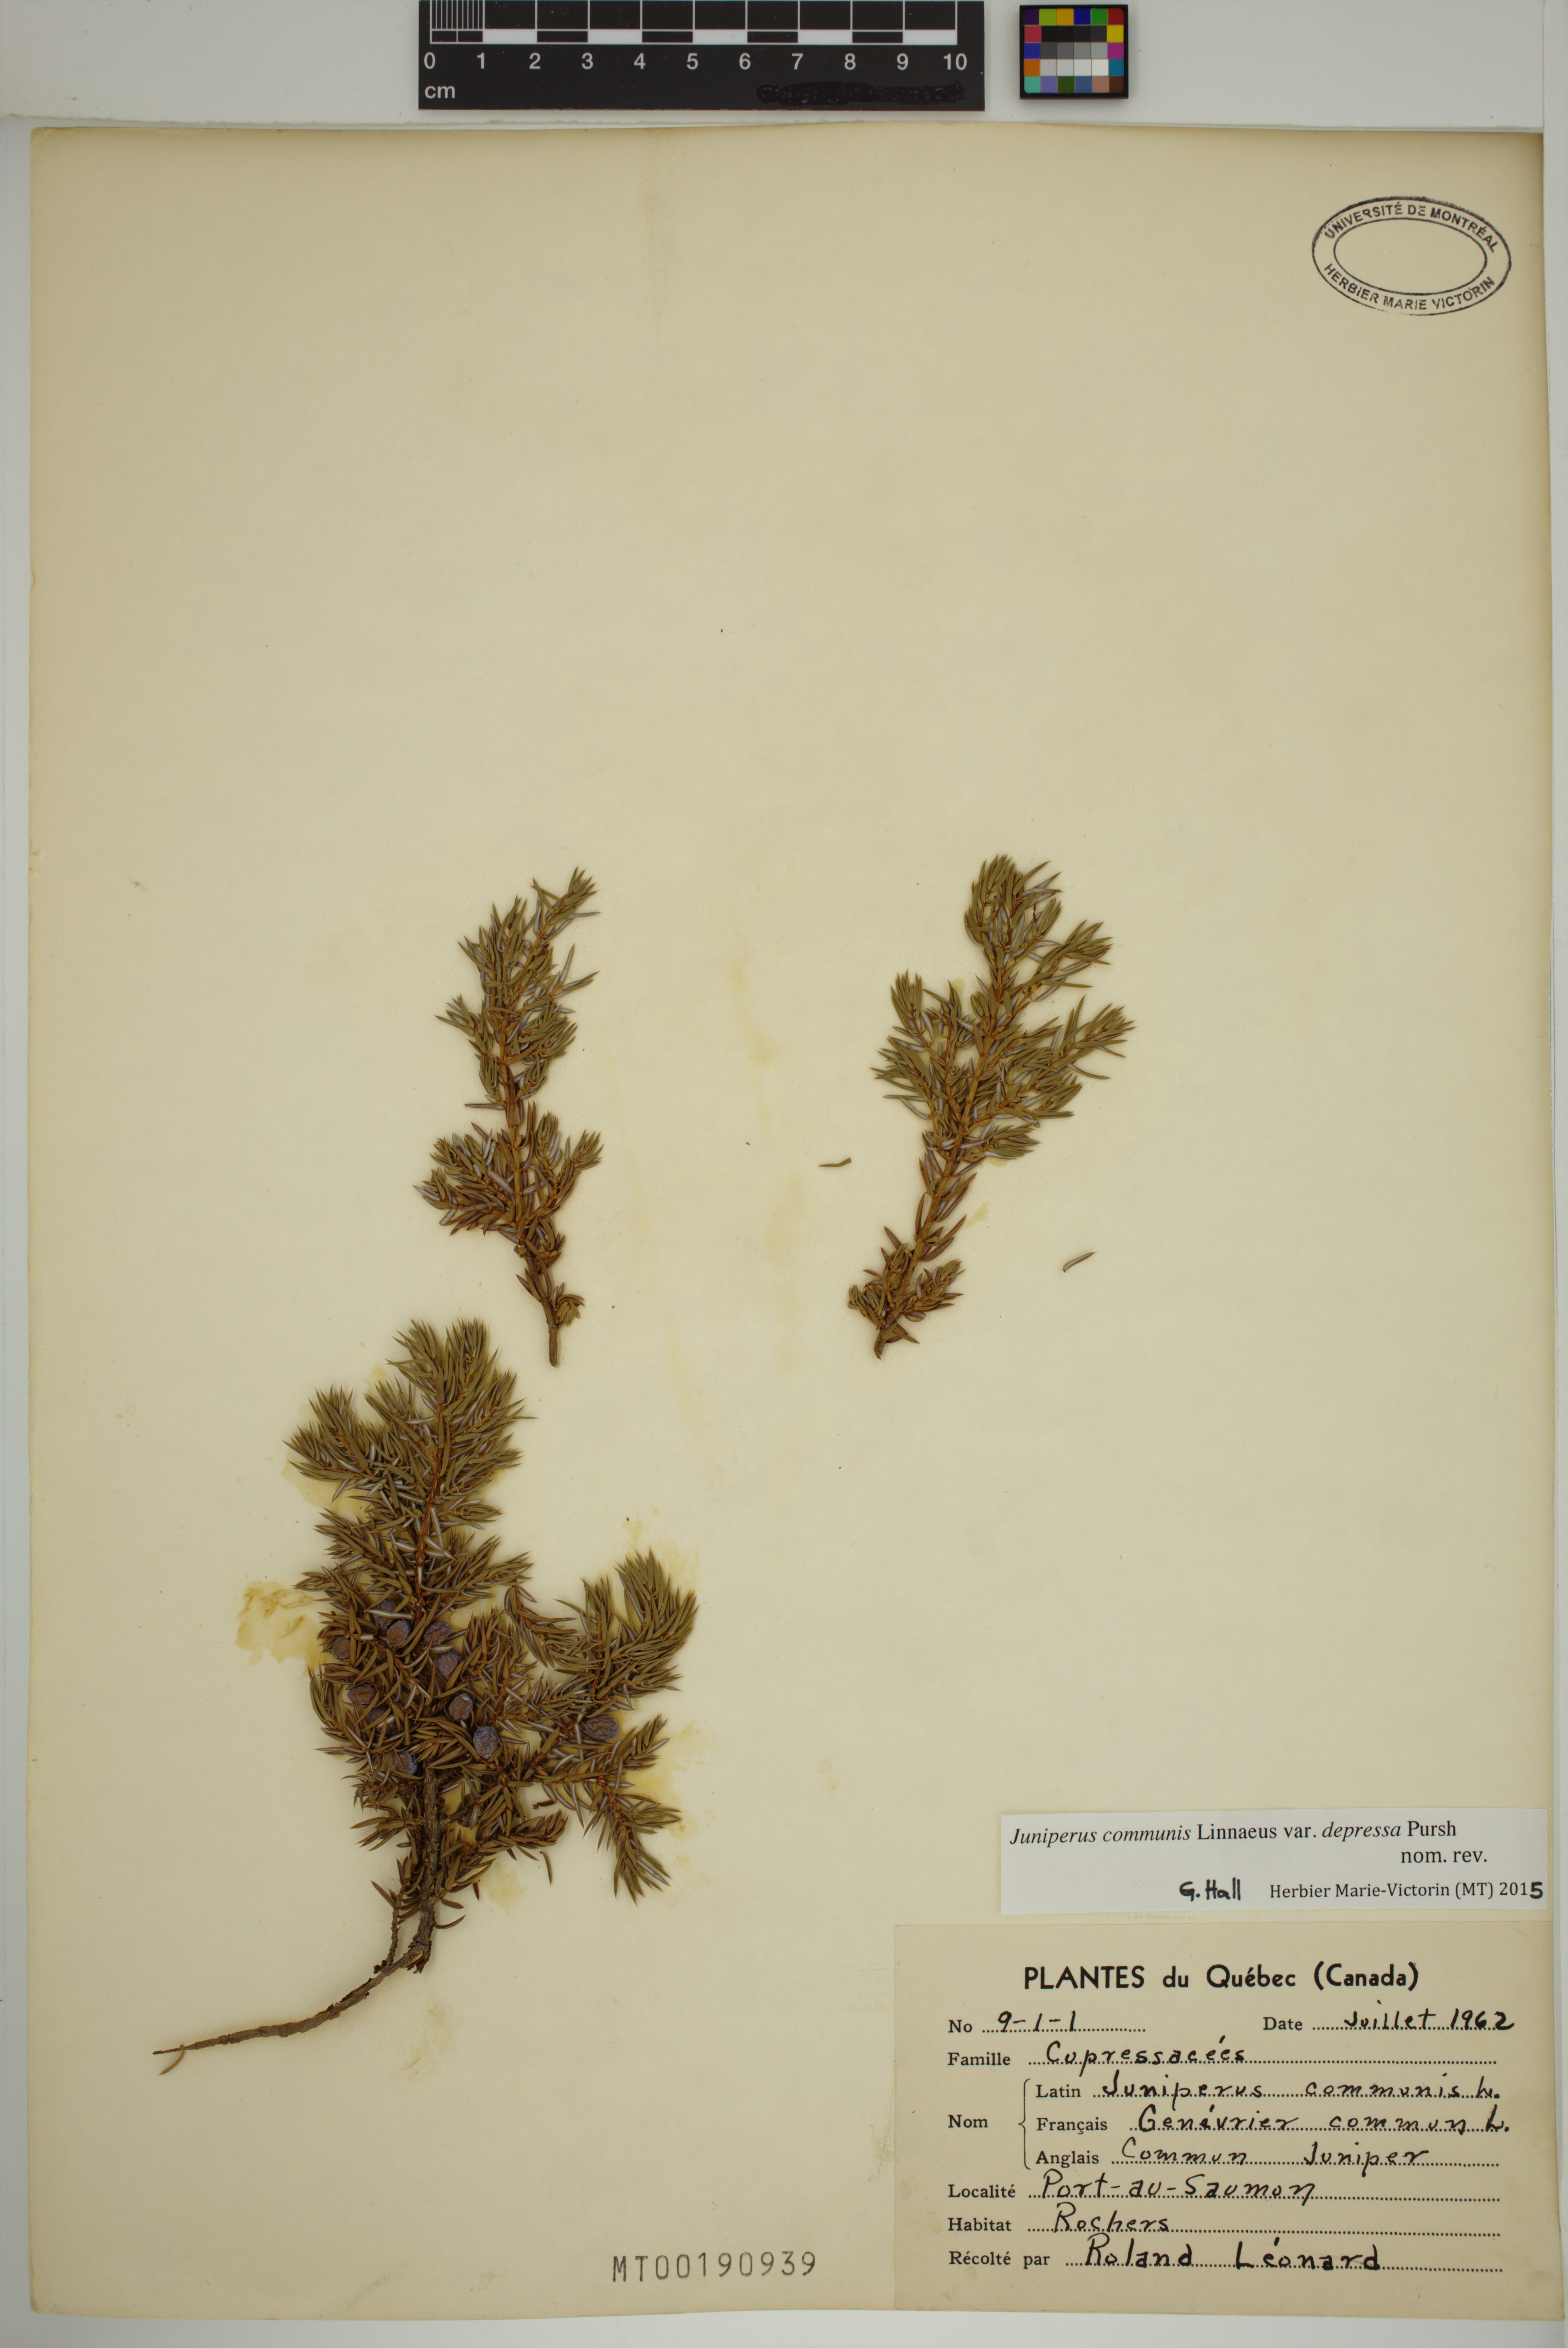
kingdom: Plantae
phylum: Tracheophyta
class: Pinopsida
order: Pinales
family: Cupressaceae
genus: Juniperus
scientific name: Juniperus communis
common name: Common juniper
